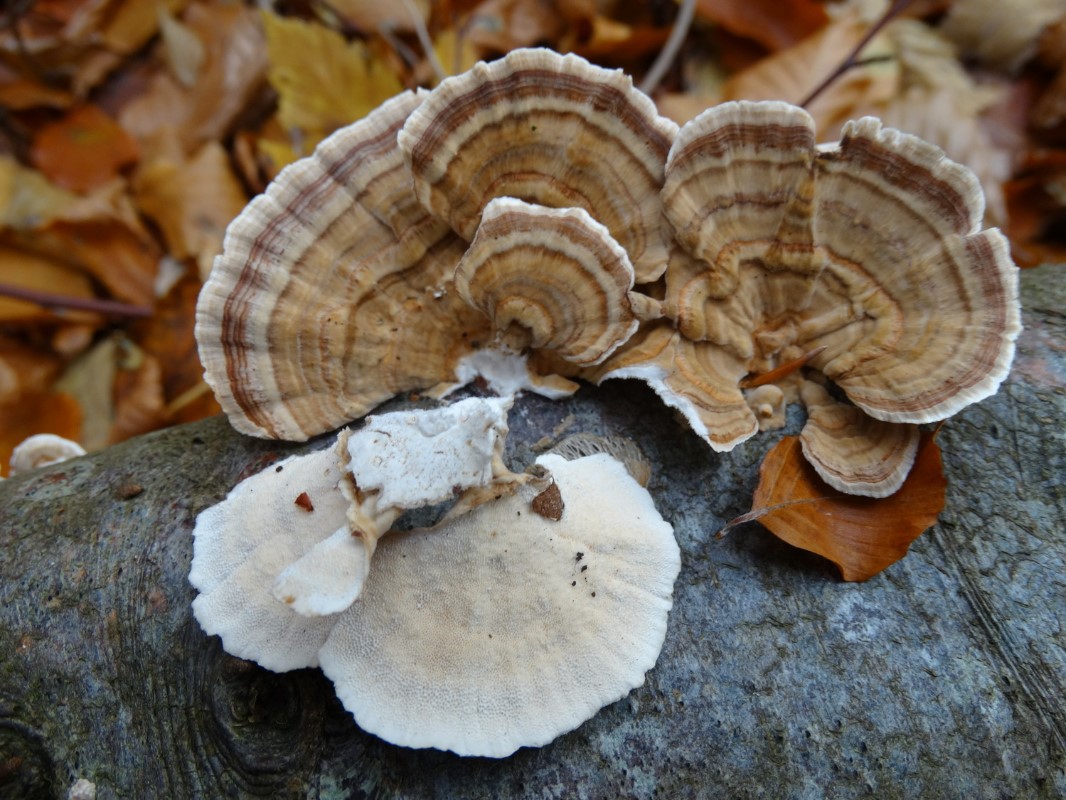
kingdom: Fungi
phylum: Basidiomycota
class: Agaricomycetes
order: Polyporales
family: Polyporaceae
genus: Trametes
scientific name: Trametes versicolor
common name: broget læderporesvamp
